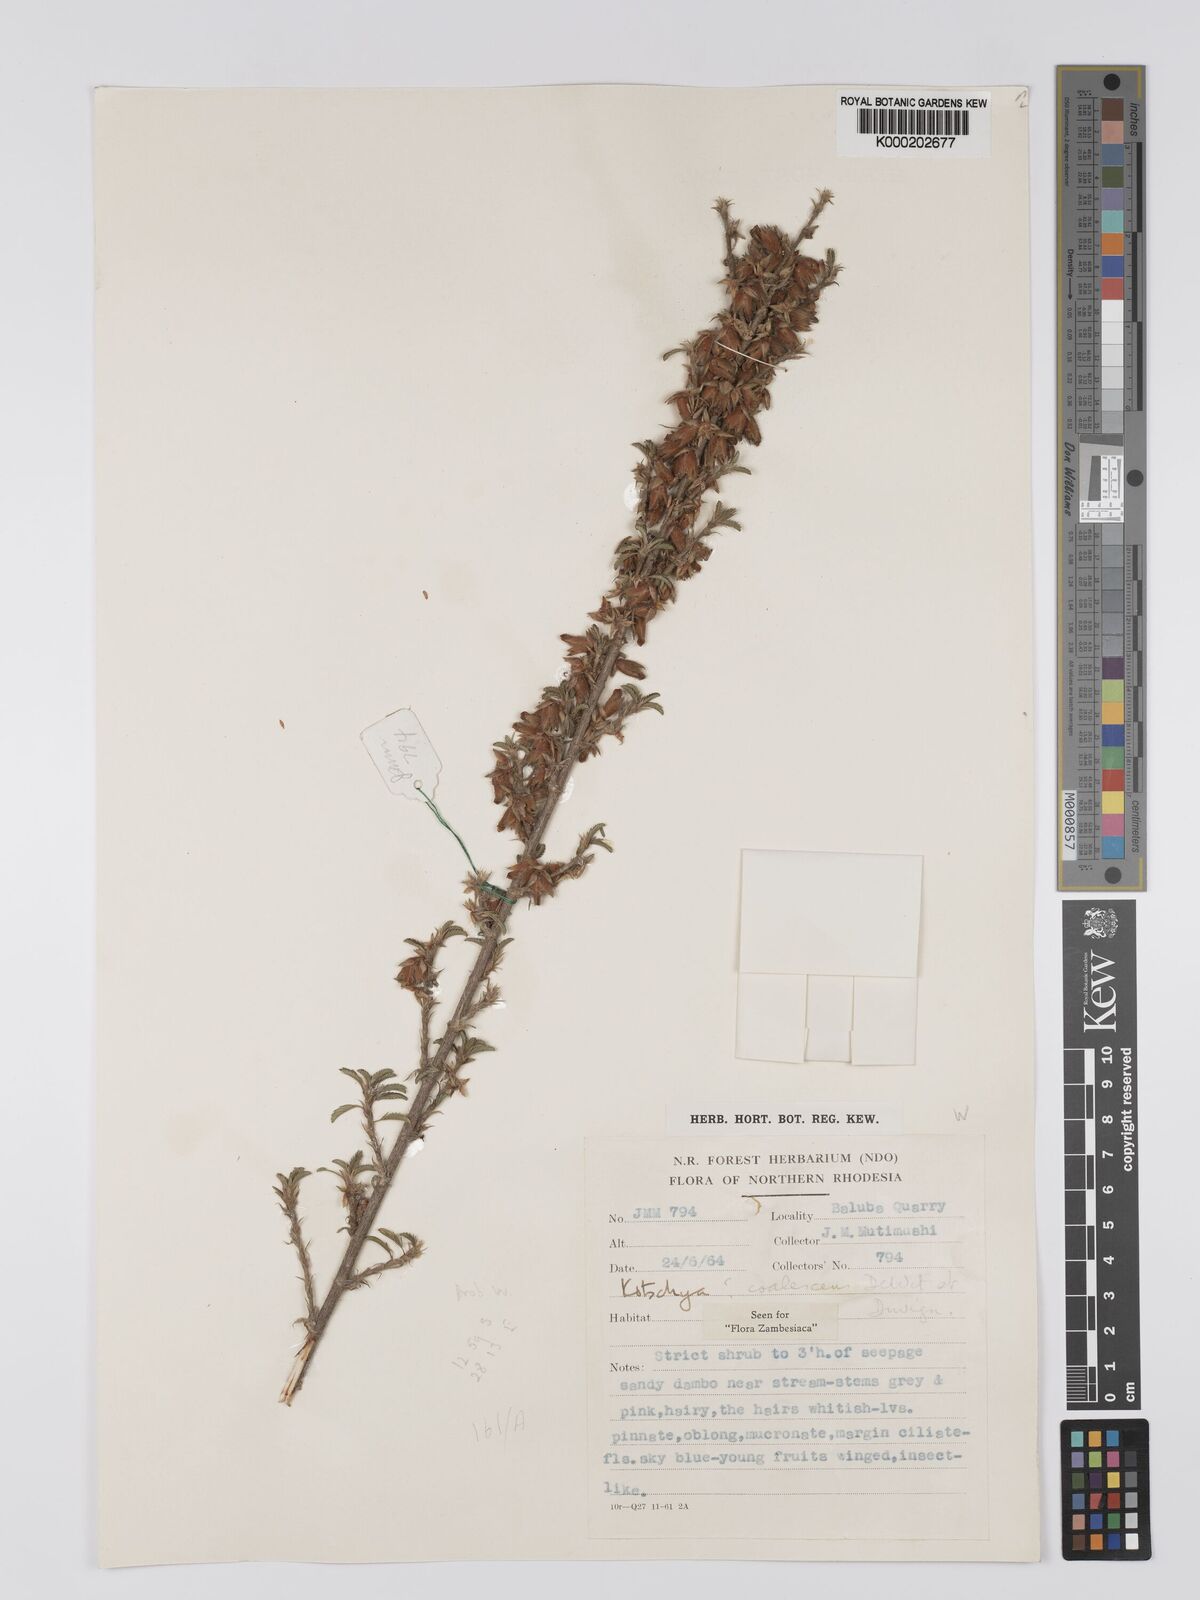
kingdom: Plantae
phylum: Tracheophyta
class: Magnoliopsida
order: Fabales
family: Fabaceae
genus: Kotschya
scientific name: Kotschya coalescens
